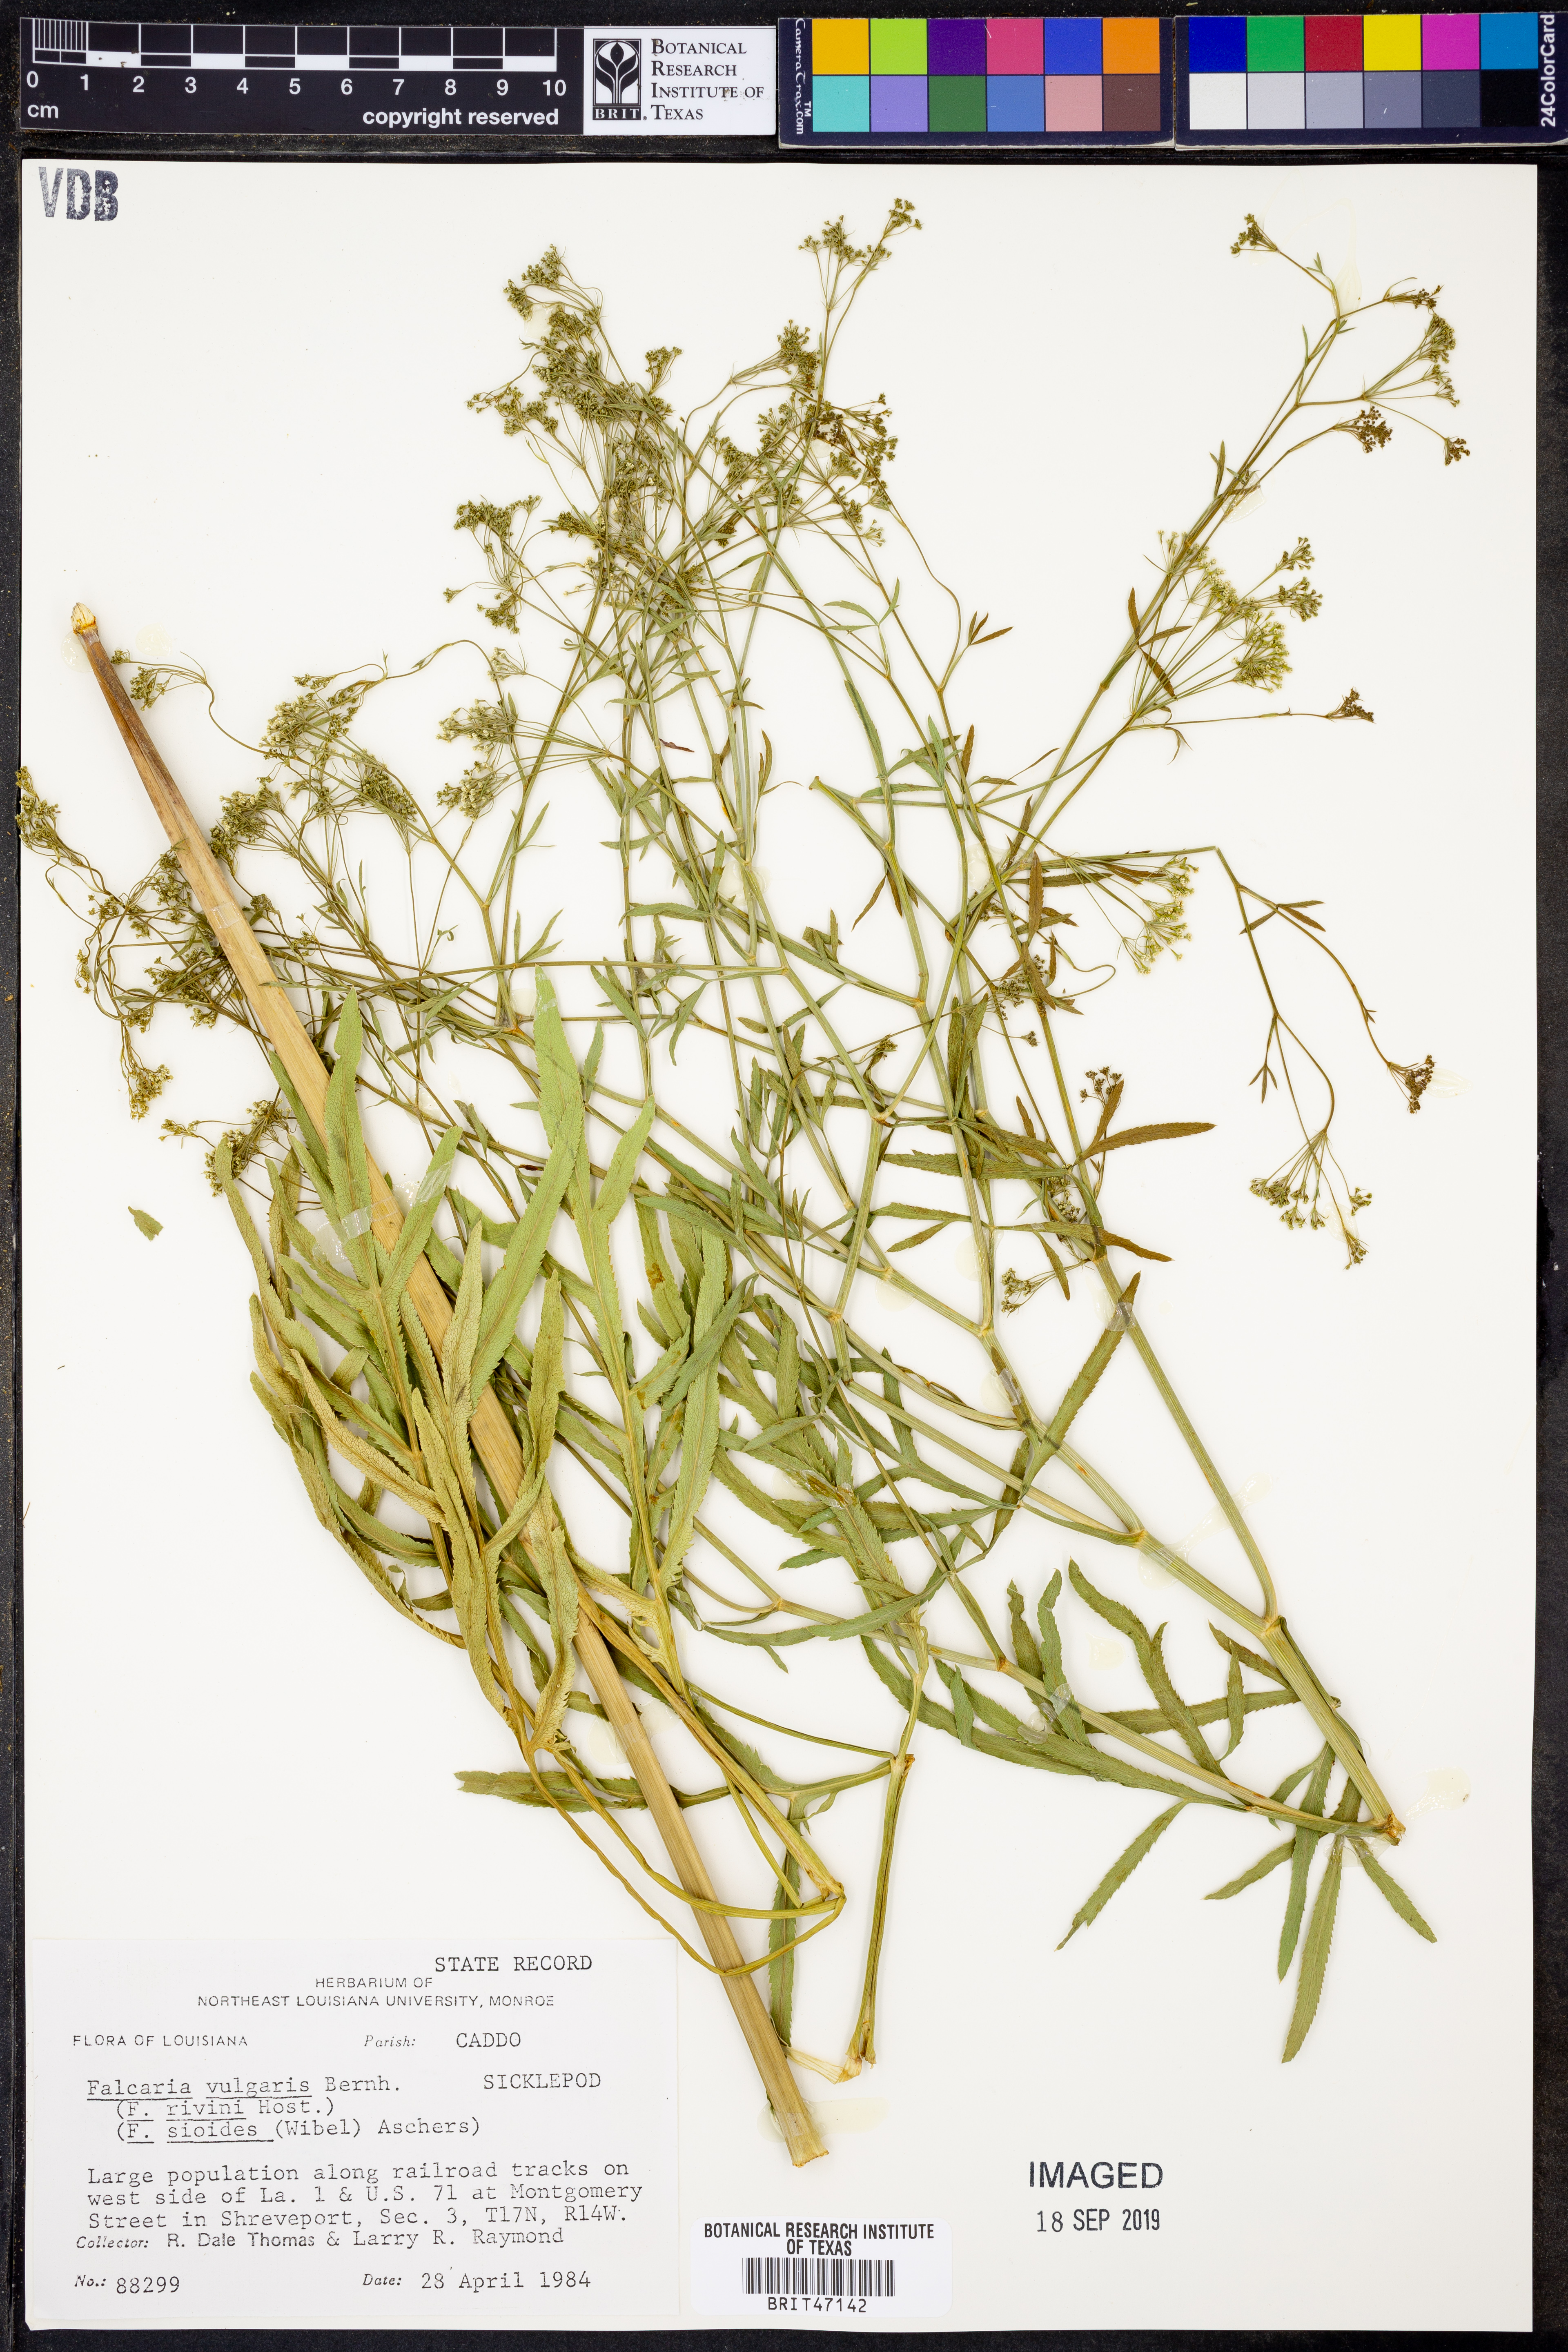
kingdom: Plantae
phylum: Tracheophyta
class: Magnoliopsida
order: Apiales
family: Apiaceae
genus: Falcaria
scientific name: Falcaria vulgaris
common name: Longleaf
